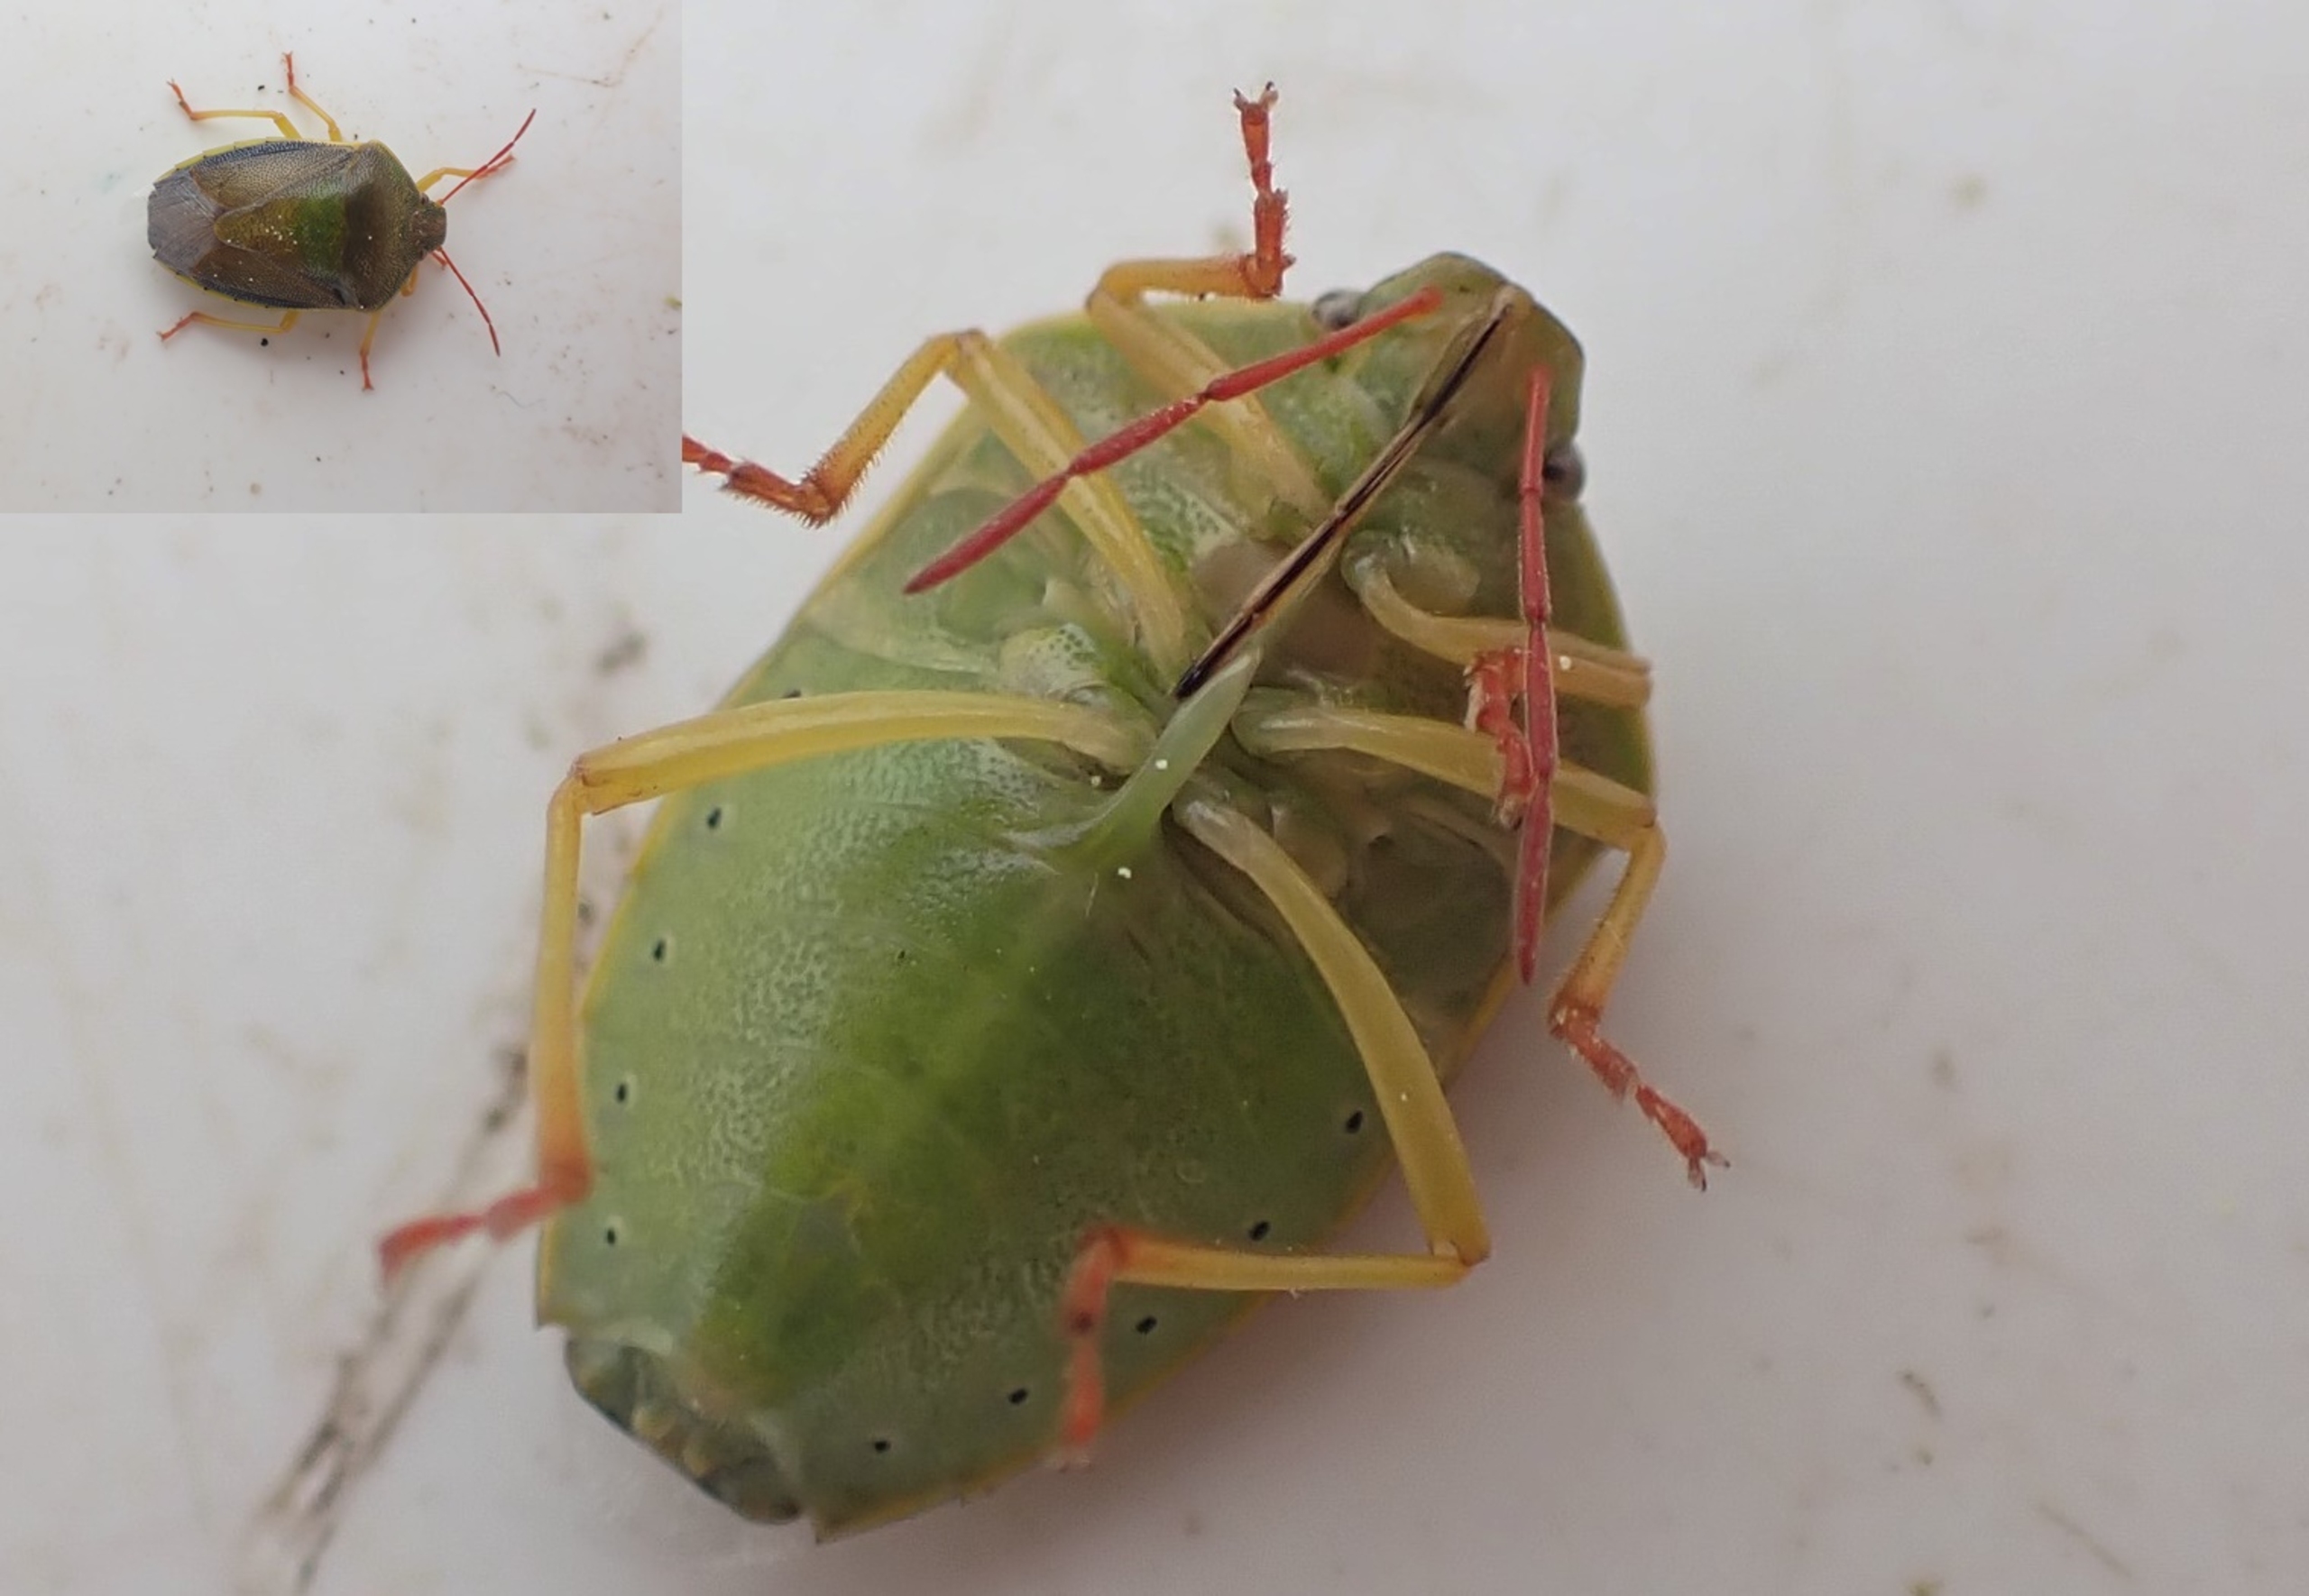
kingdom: Animalia
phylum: Arthropoda
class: Insecta
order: Hemiptera
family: Pentatomidae
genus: Piezodorus
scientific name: Piezodorus lituratus
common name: Gyvelbredtæge
